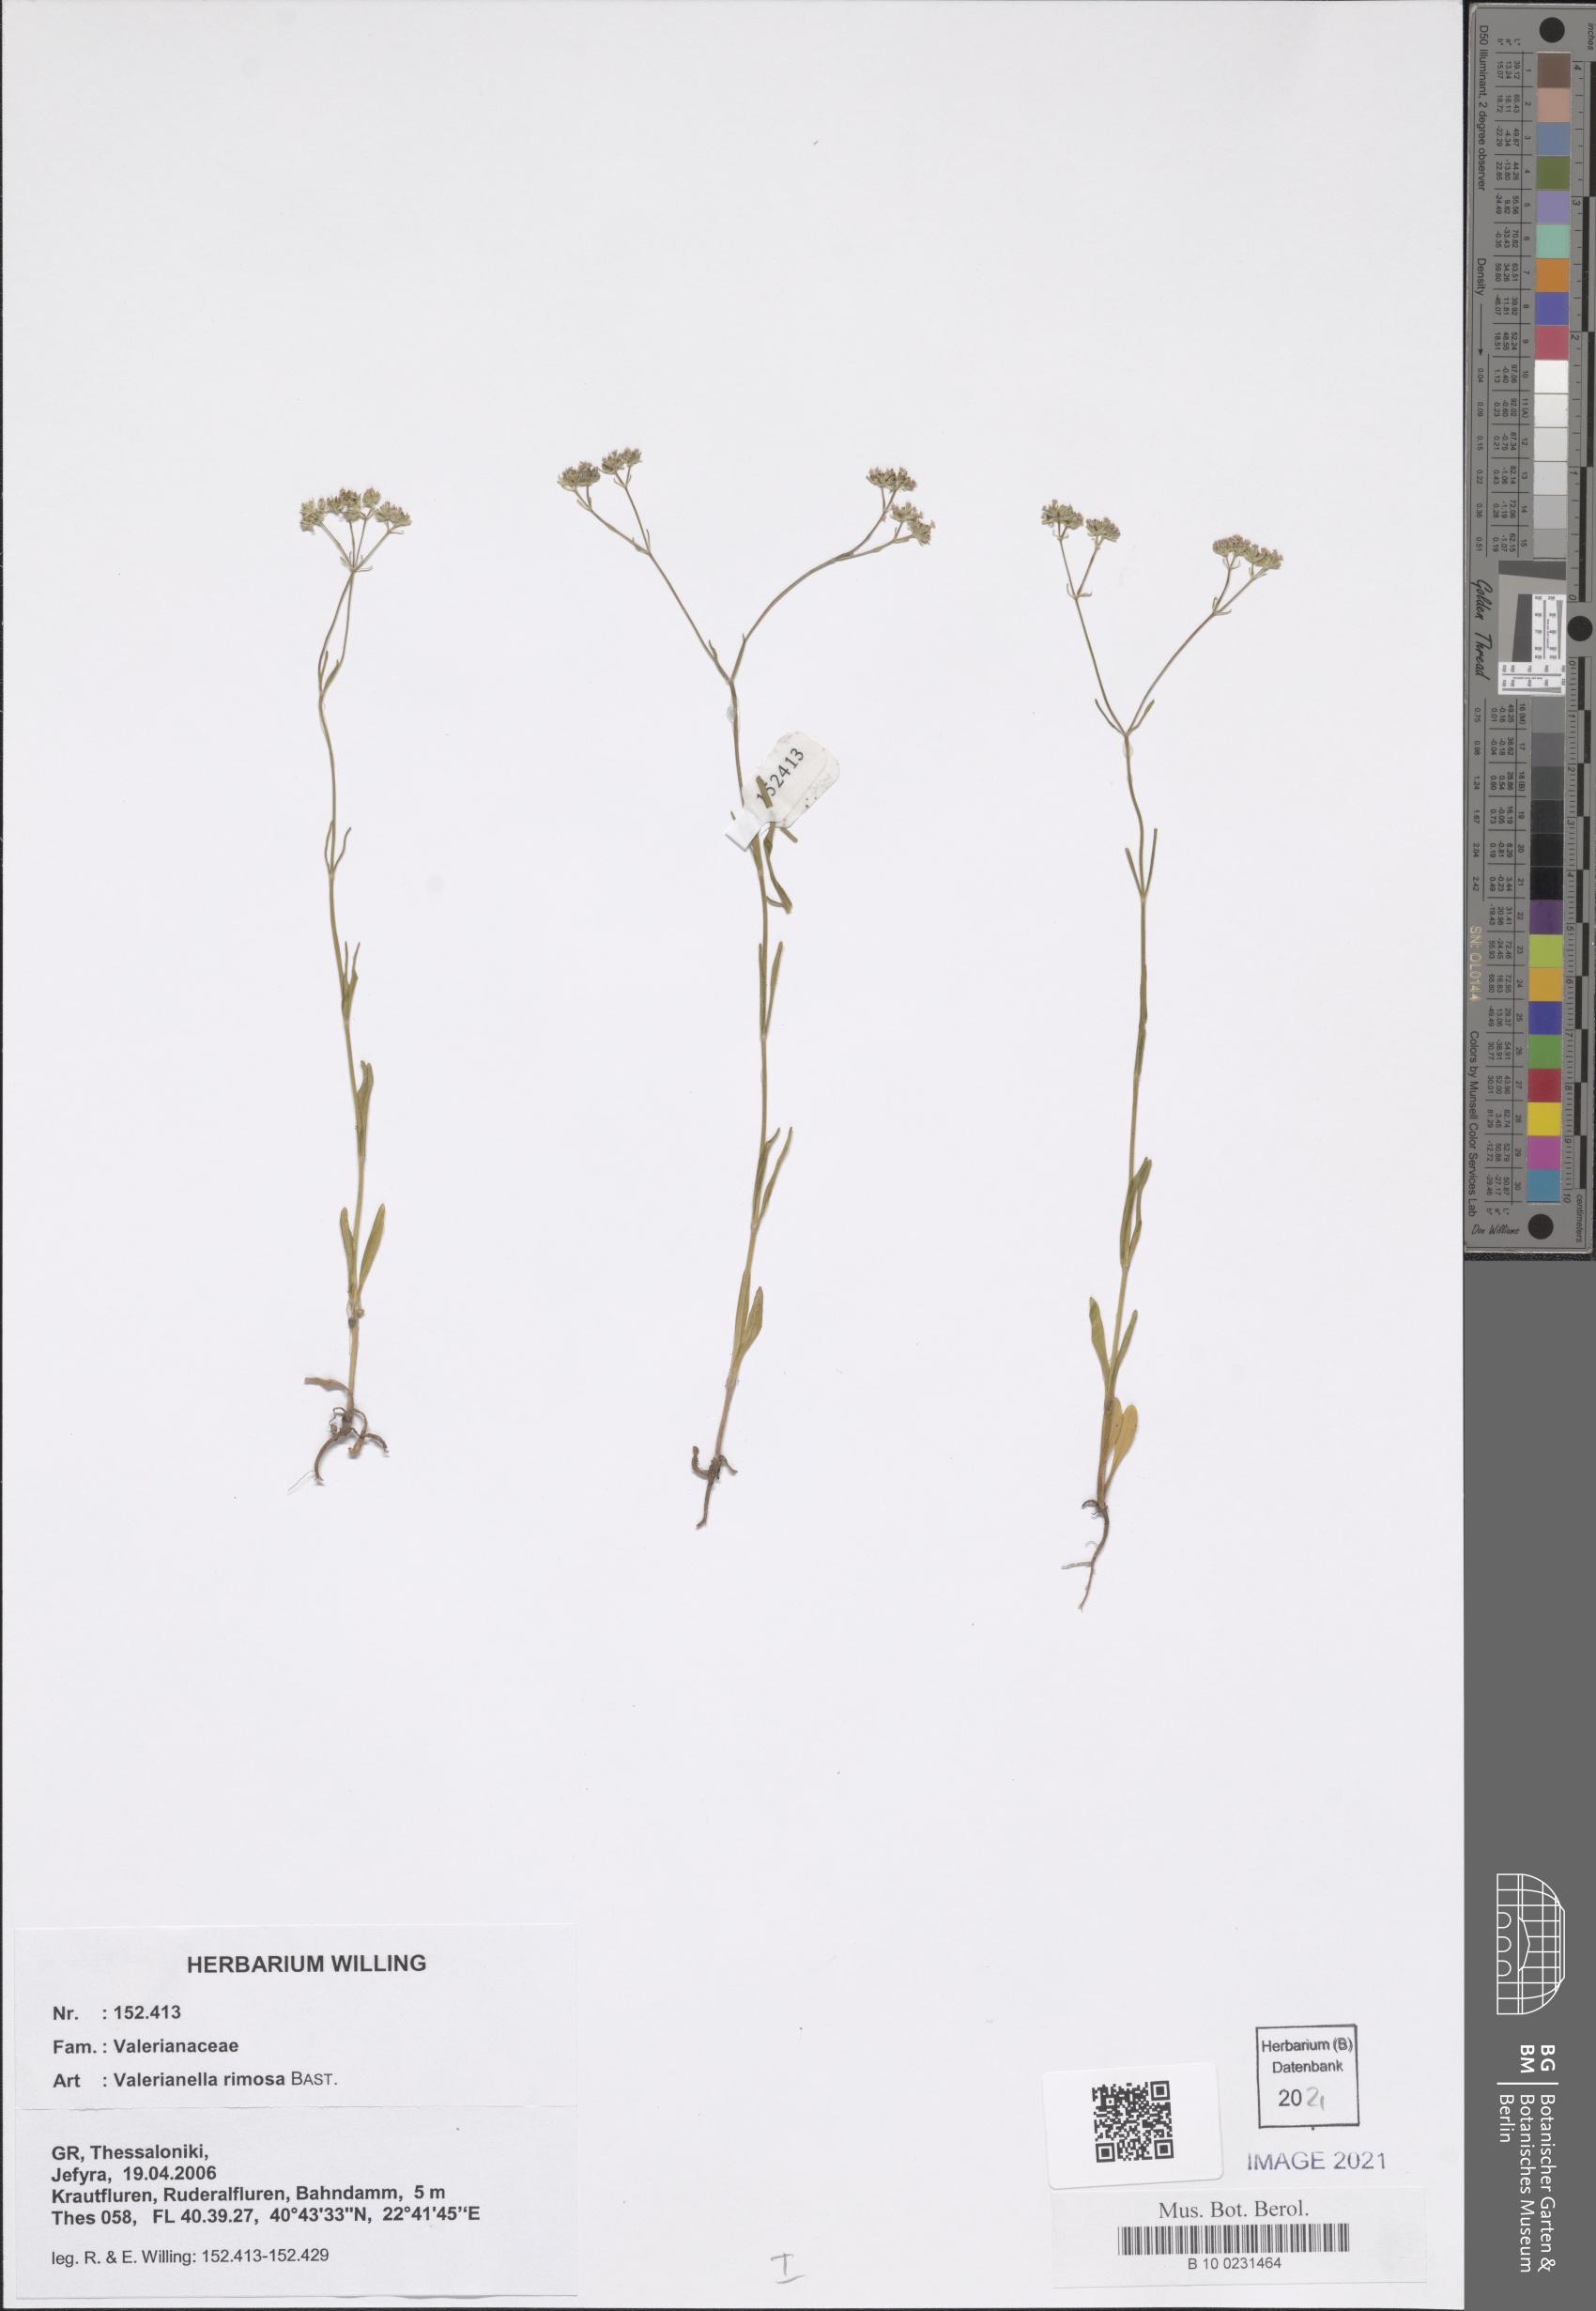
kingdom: Plantae
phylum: Tracheophyta
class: Magnoliopsida
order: Dipsacales
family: Caprifoliaceae
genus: Valerianella
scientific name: Valerianella rimosa
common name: Broad-fruited cornsalad
